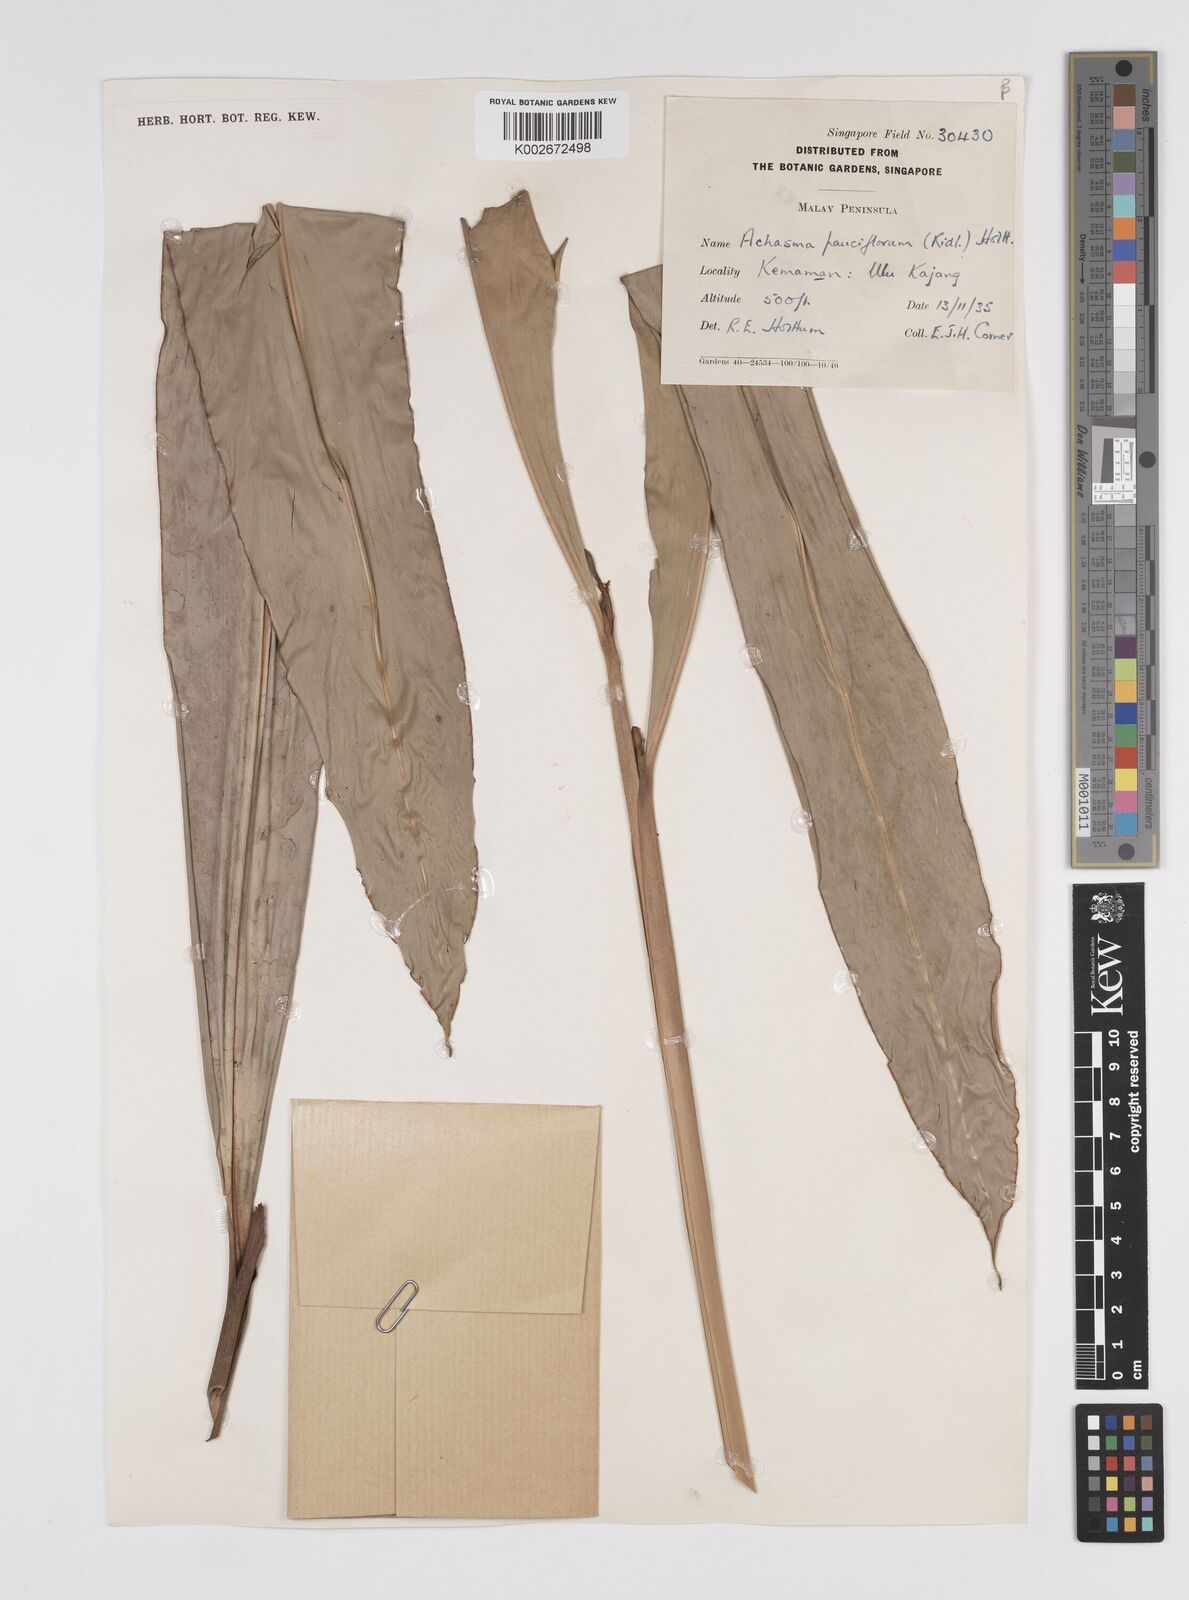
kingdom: Plantae
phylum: Tracheophyta
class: Liliopsida
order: Zingiberales
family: Zingiberaceae
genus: Etlingera
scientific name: Etlingera pauciflora
